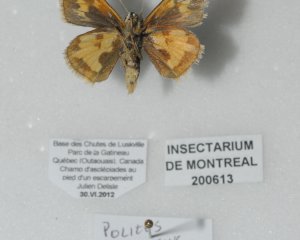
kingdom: Animalia
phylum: Arthropoda
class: Insecta
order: Lepidoptera
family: Hesperiidae
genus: Polites
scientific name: Polites coras
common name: Peck's Skipper
